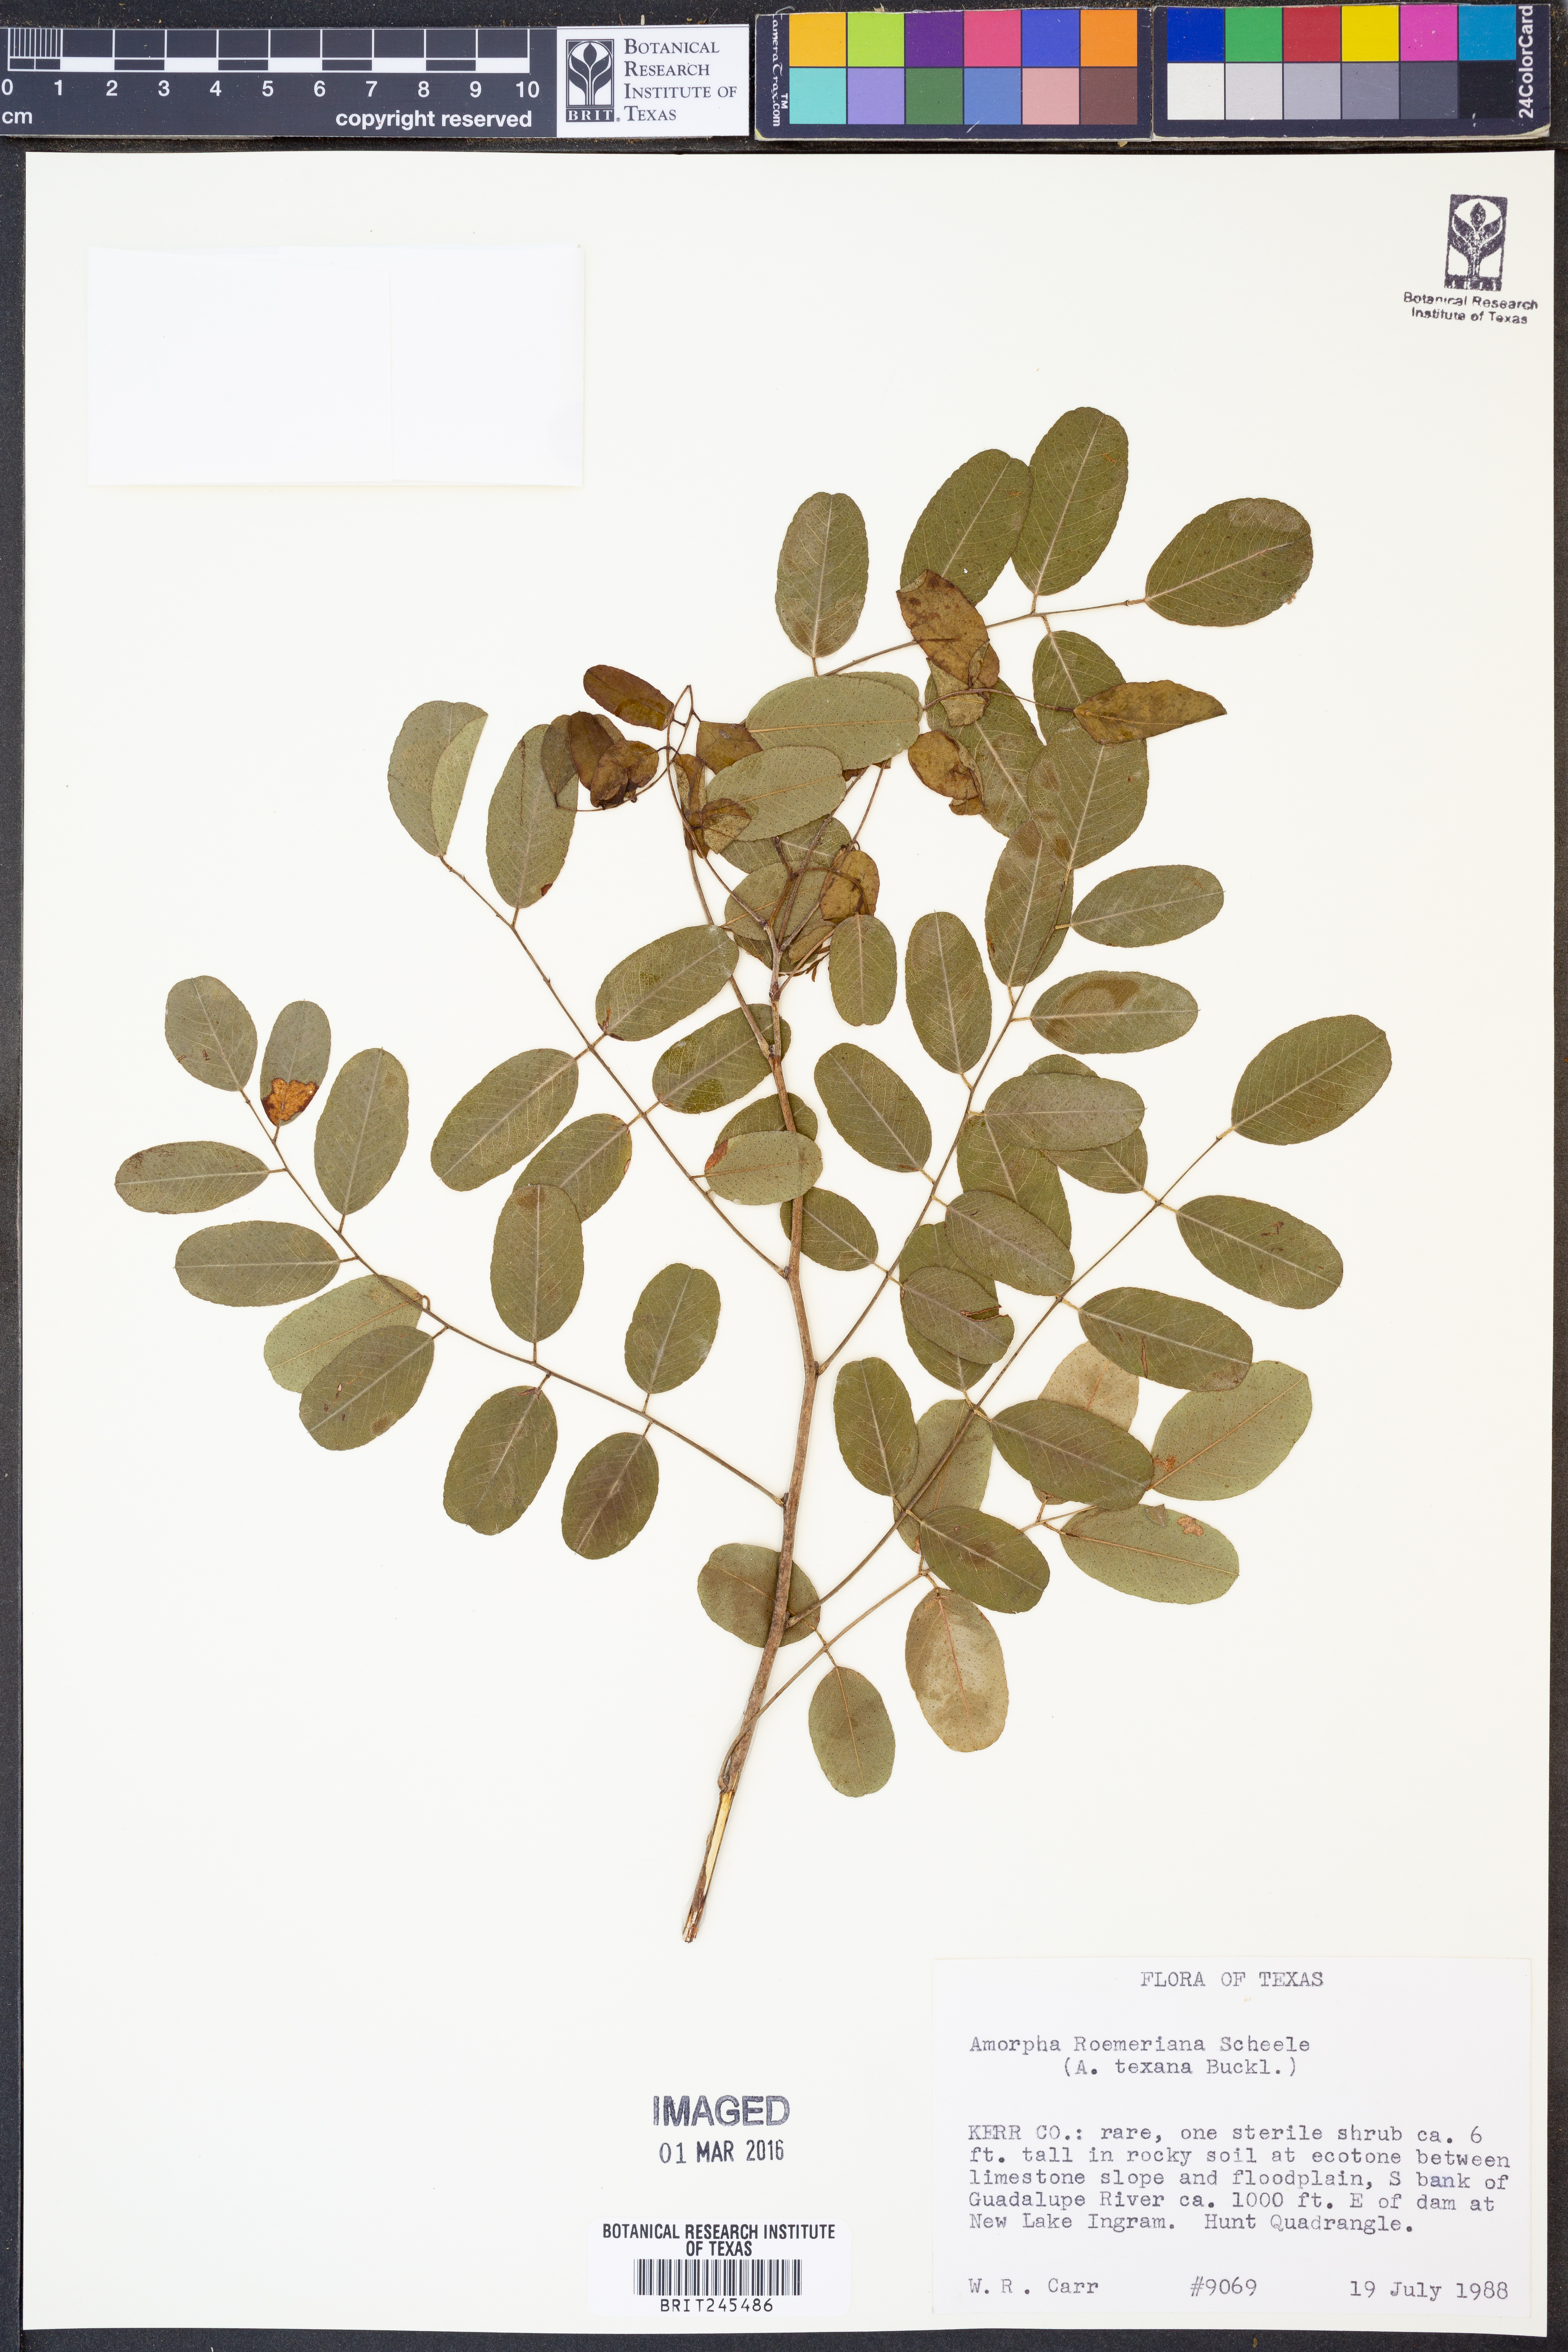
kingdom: Plantae
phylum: Tracheophyta
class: Magnoliopsida
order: Fabales
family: Fabaceae
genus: Amorpha
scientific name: Amorpha roemeriana
